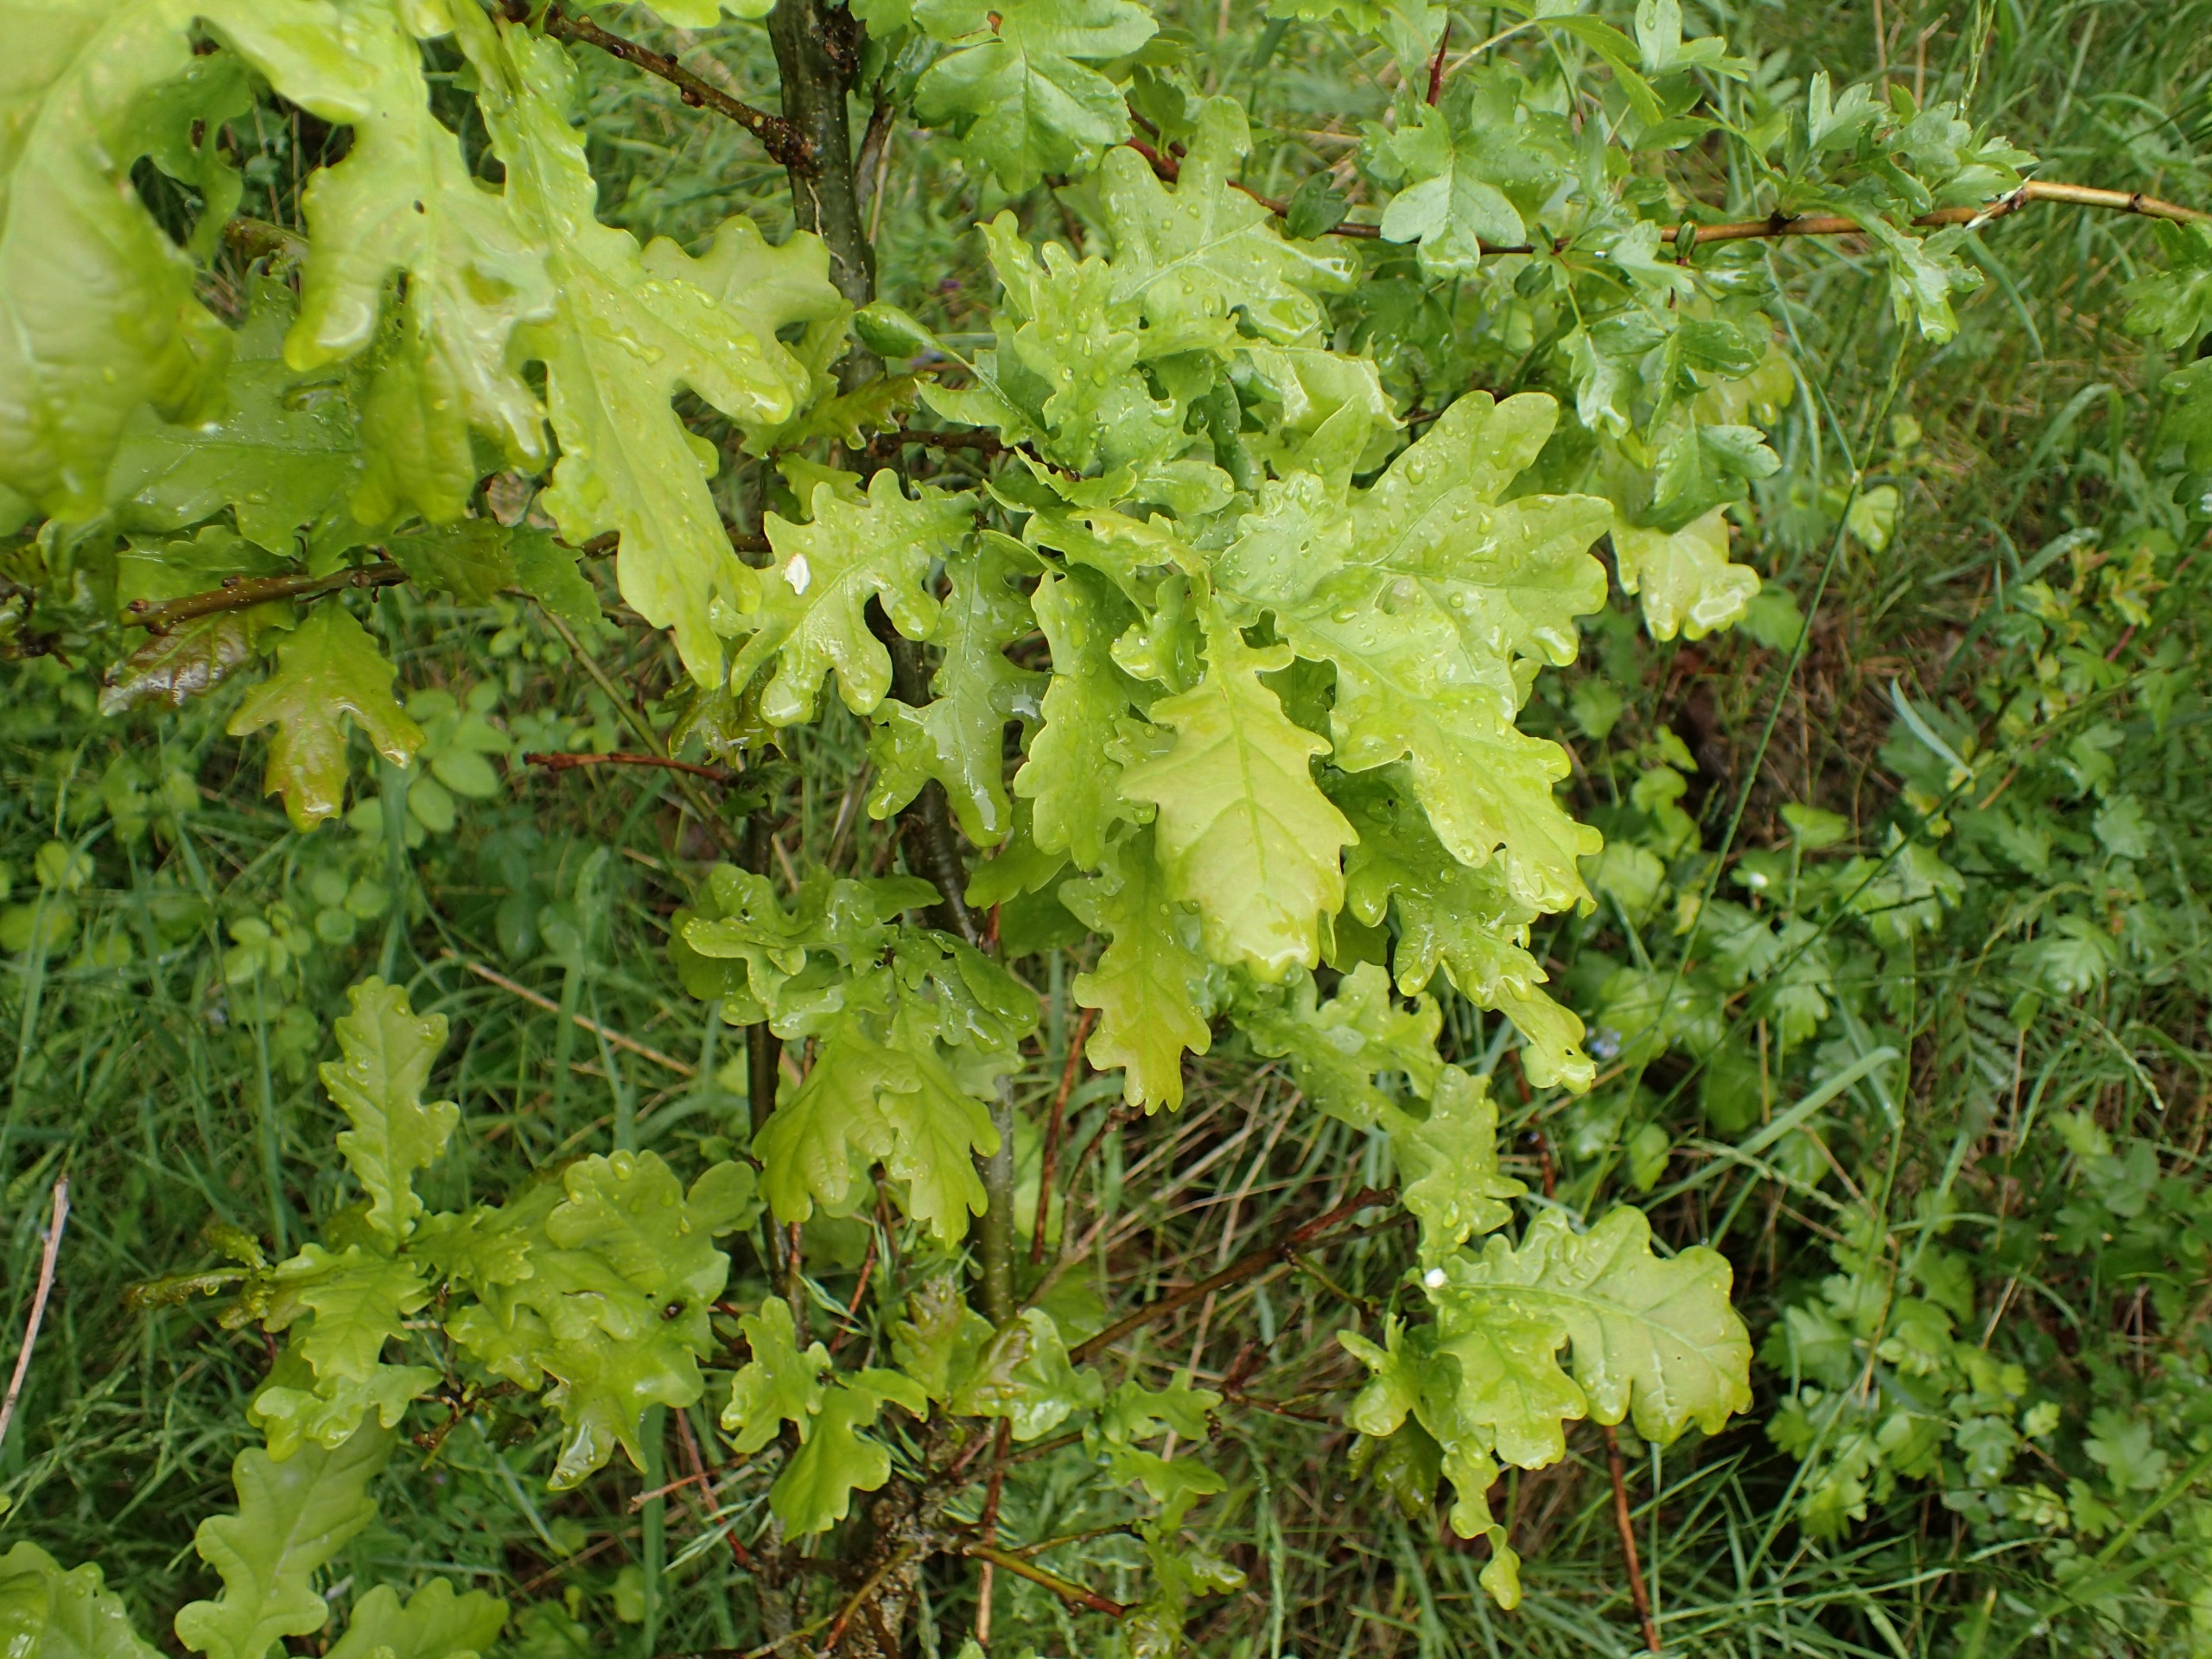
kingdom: Plantae
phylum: Tracheophyta
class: Magnoliopsida
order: Fagales
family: Fagaceae
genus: Quercus
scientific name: Quercus robur
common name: Stilk-eg/almindelig eg
